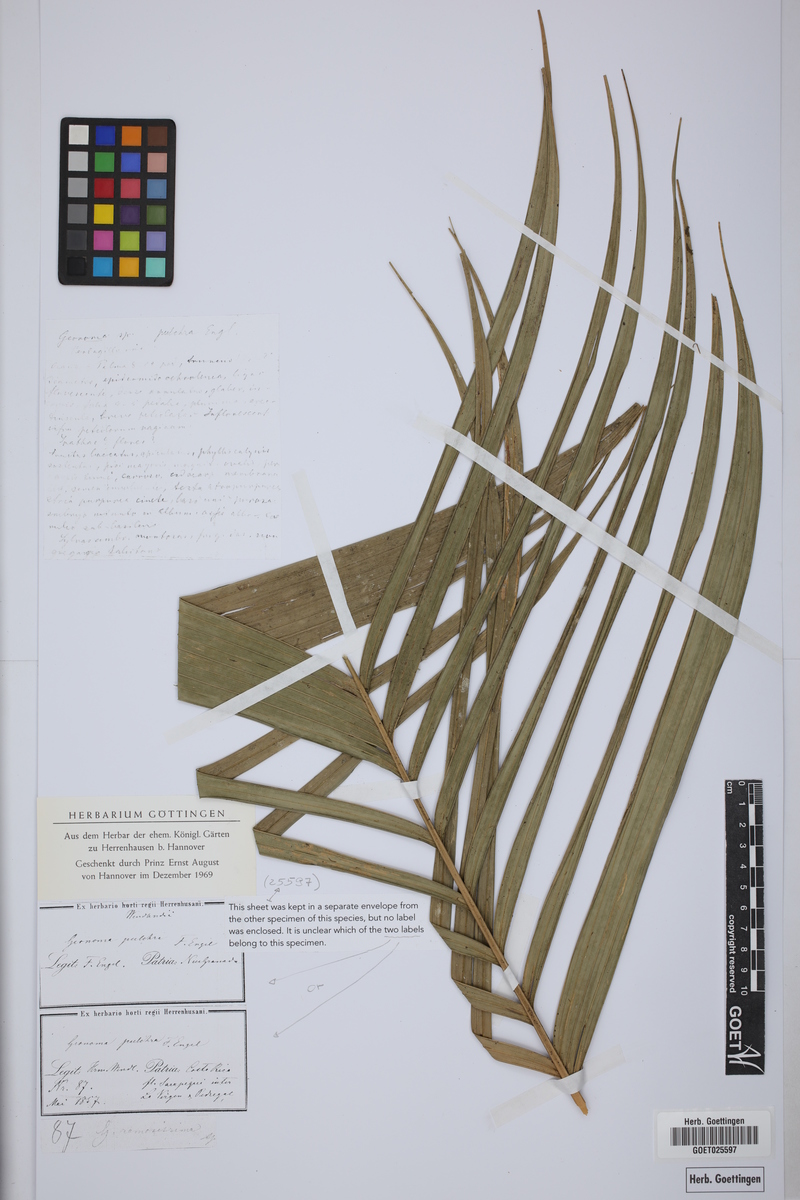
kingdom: Plantae
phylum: Tracheophyta
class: Liliopsida
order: Arecales
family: Arecaceae
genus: Geonoma
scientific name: Geonoma pinnatifrons
